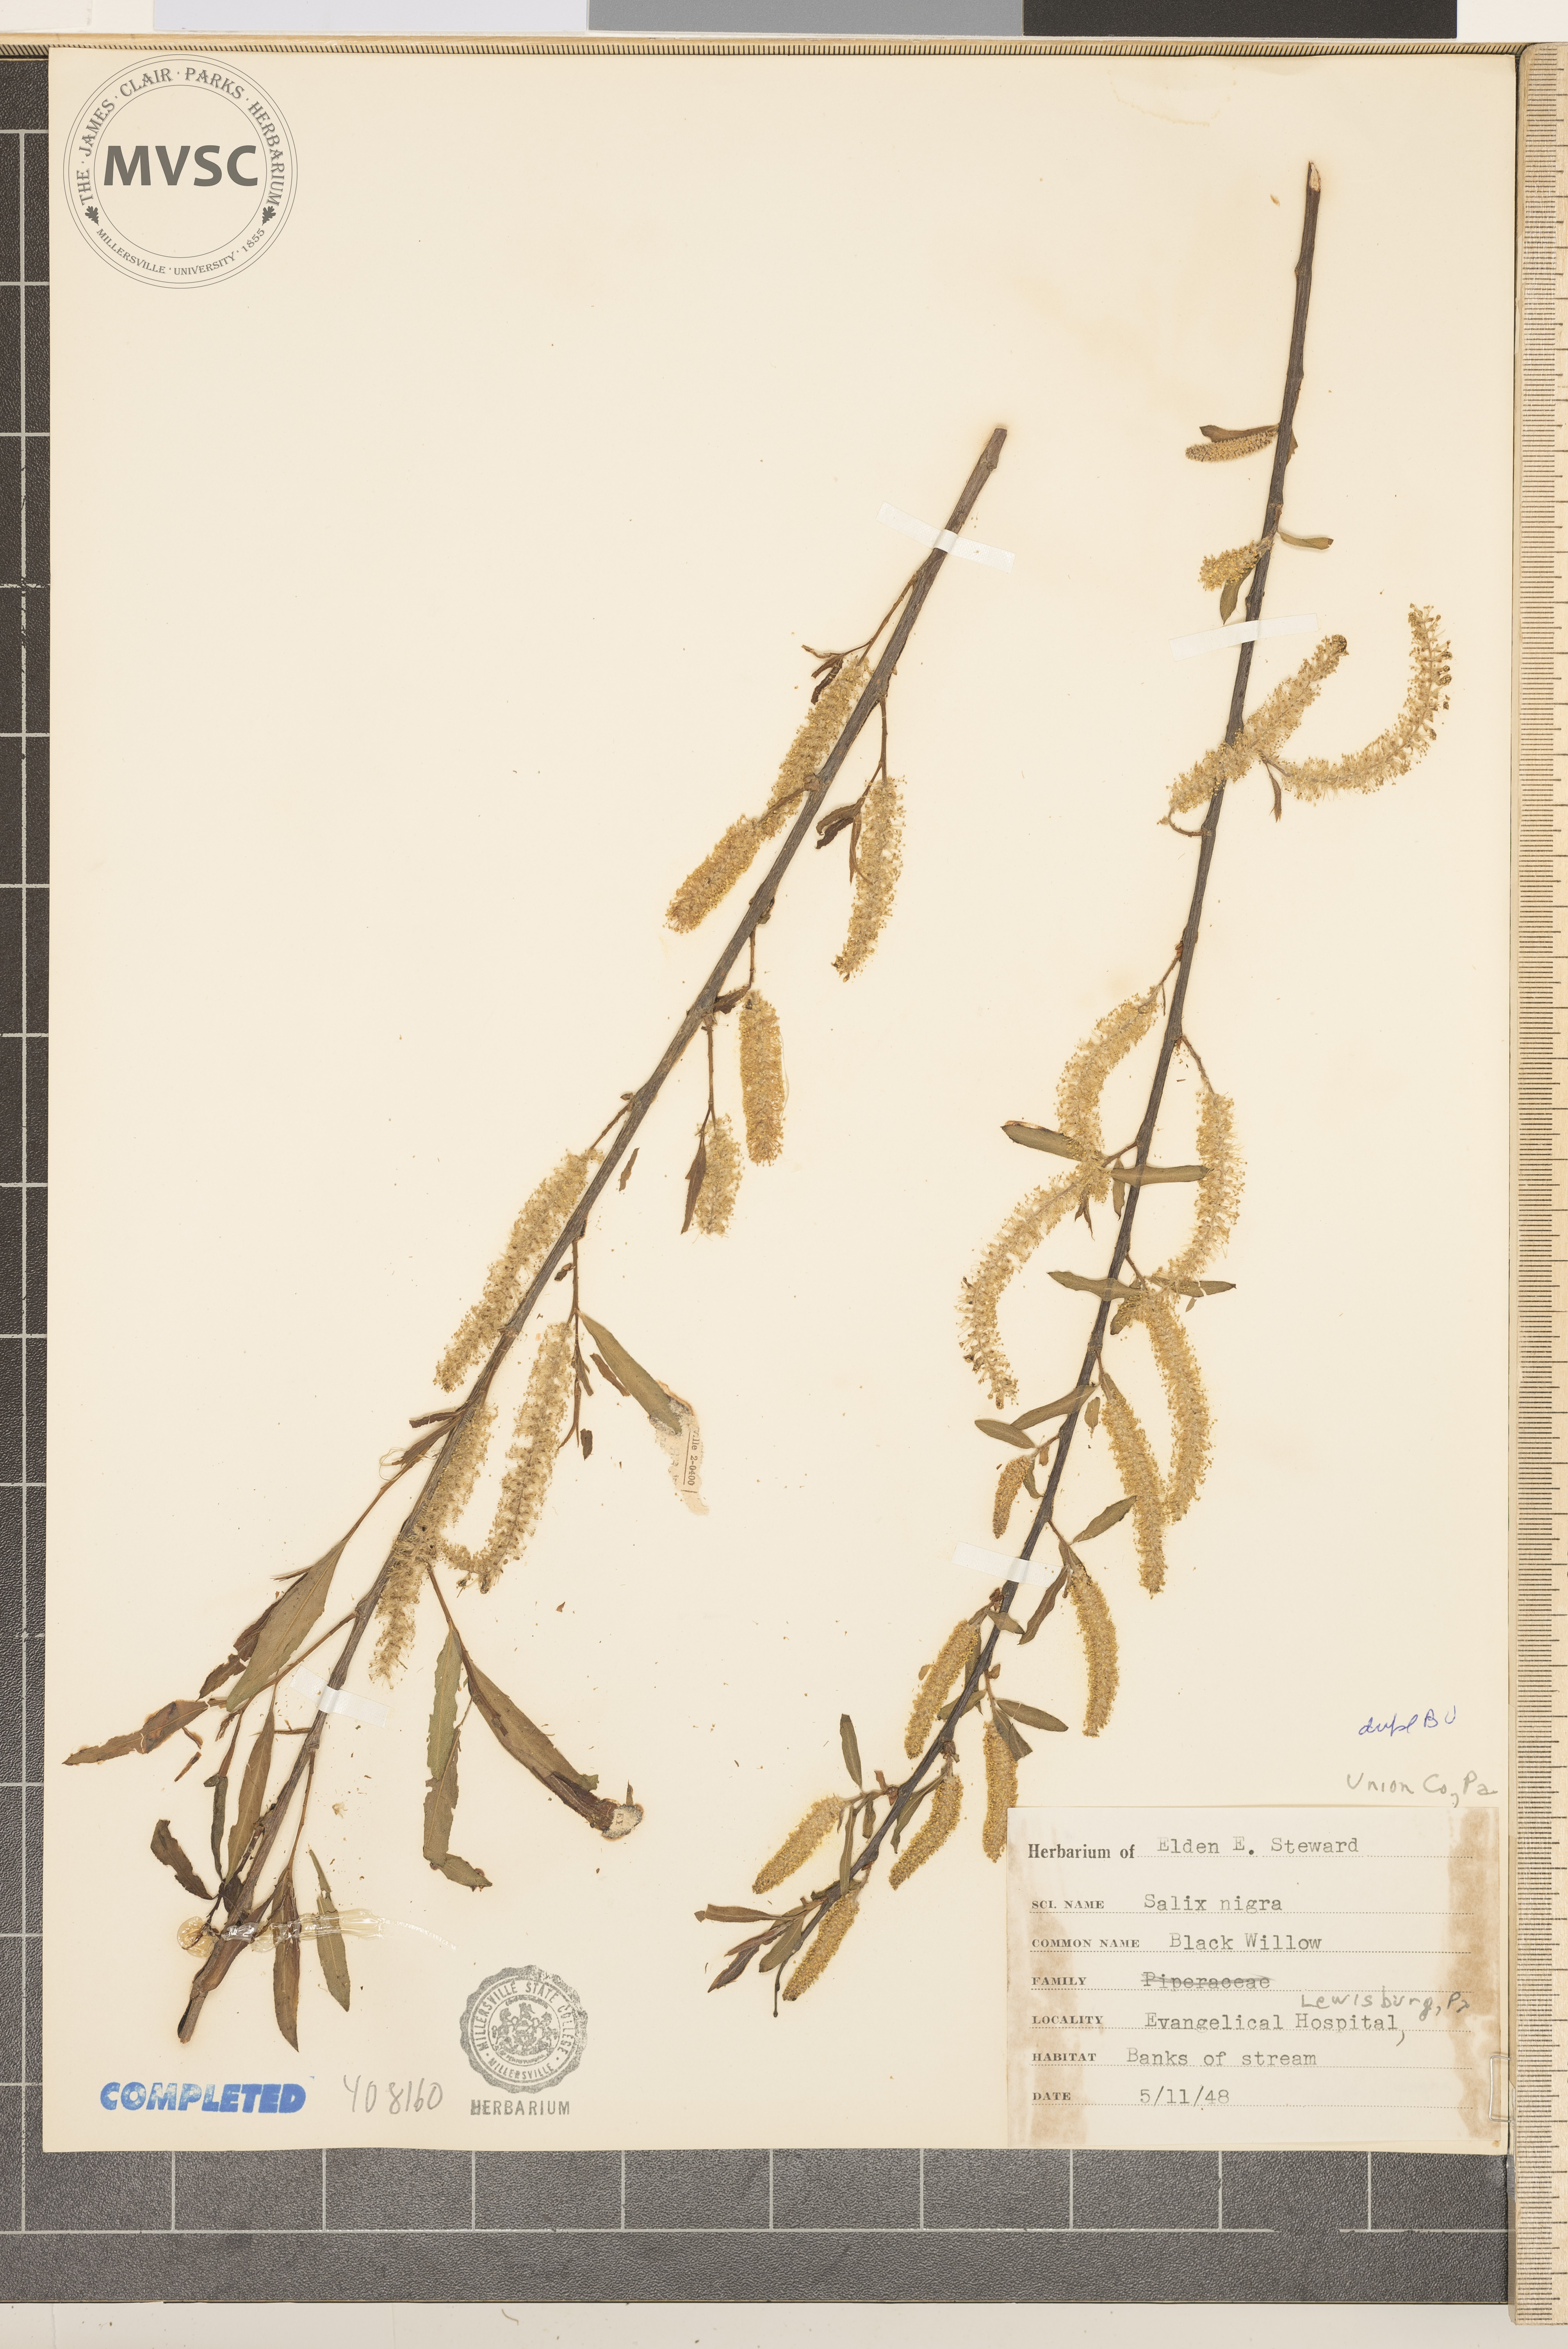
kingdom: Plantae
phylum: Tracheophyta
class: Magnoliopsida
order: Malpighiales
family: Salicaceae
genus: Salix
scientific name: Salix nigra
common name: Black willow
